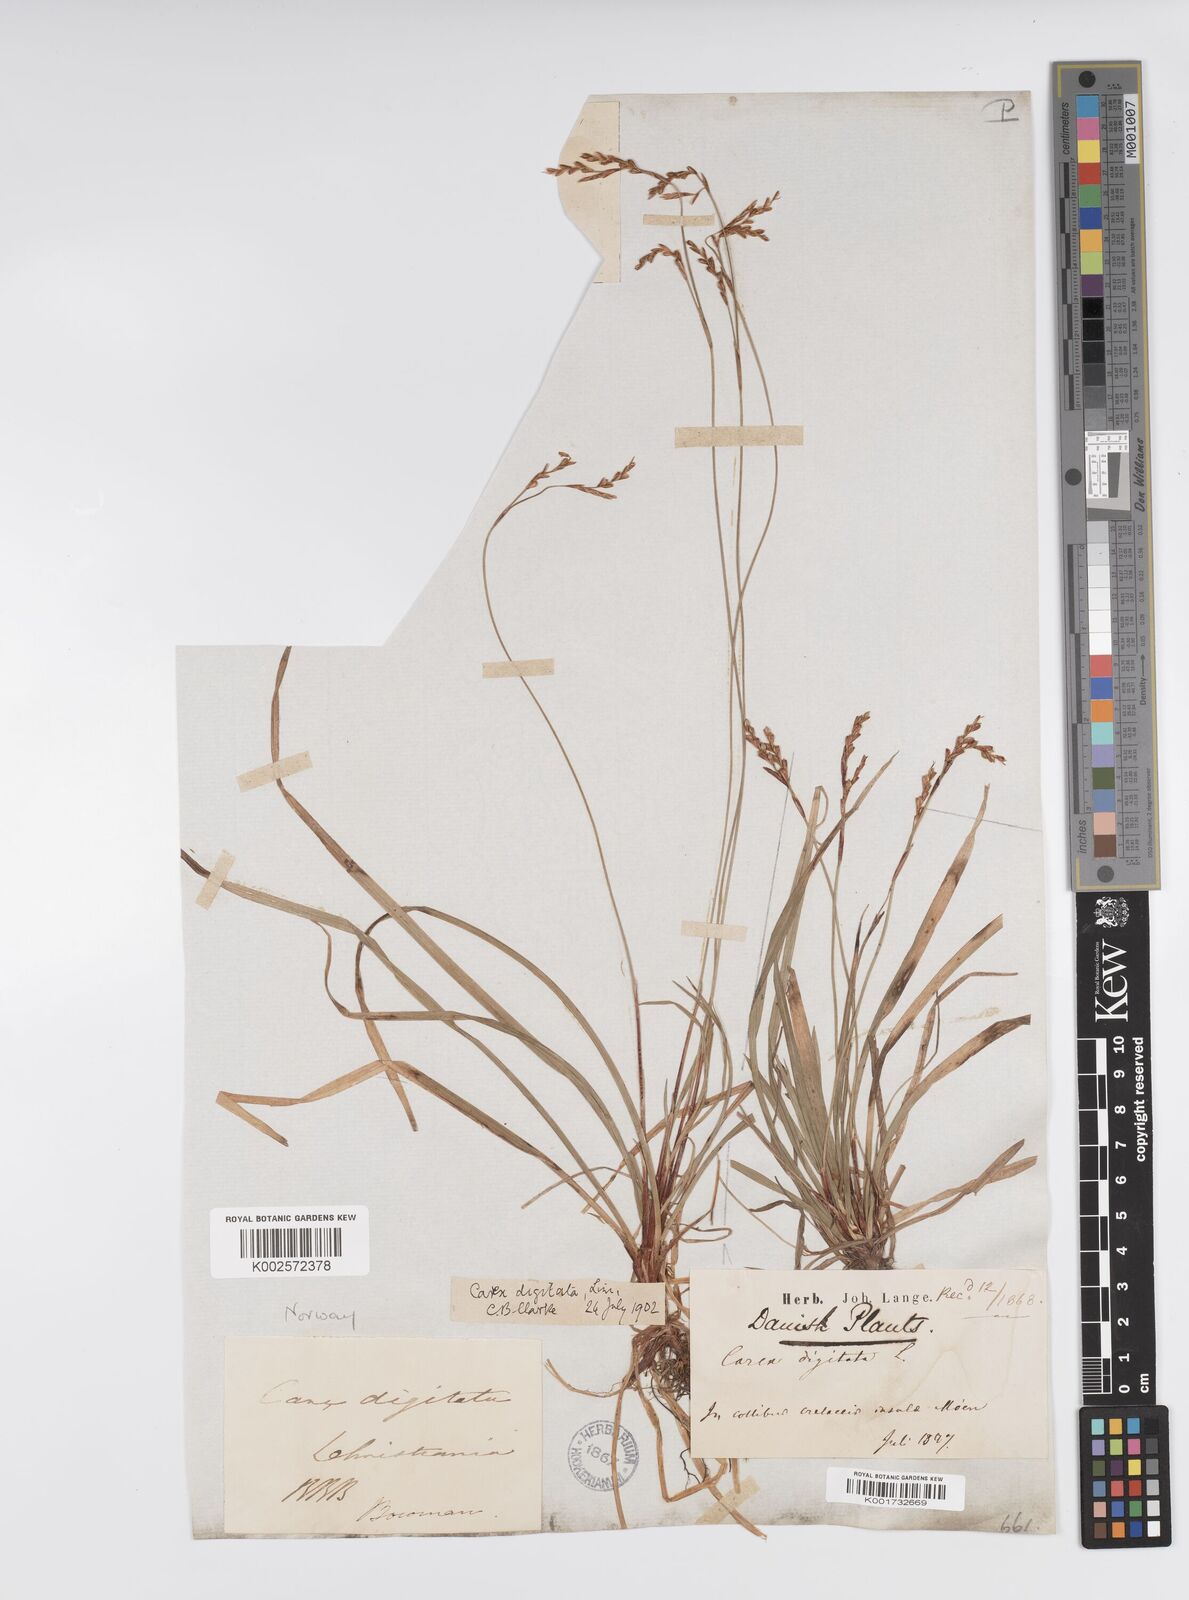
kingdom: Plantae
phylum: Tracheophyta
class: Liliopsida
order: Poales
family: Cyperaceae
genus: Carex
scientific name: Carex digitata
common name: Fingered sedge
